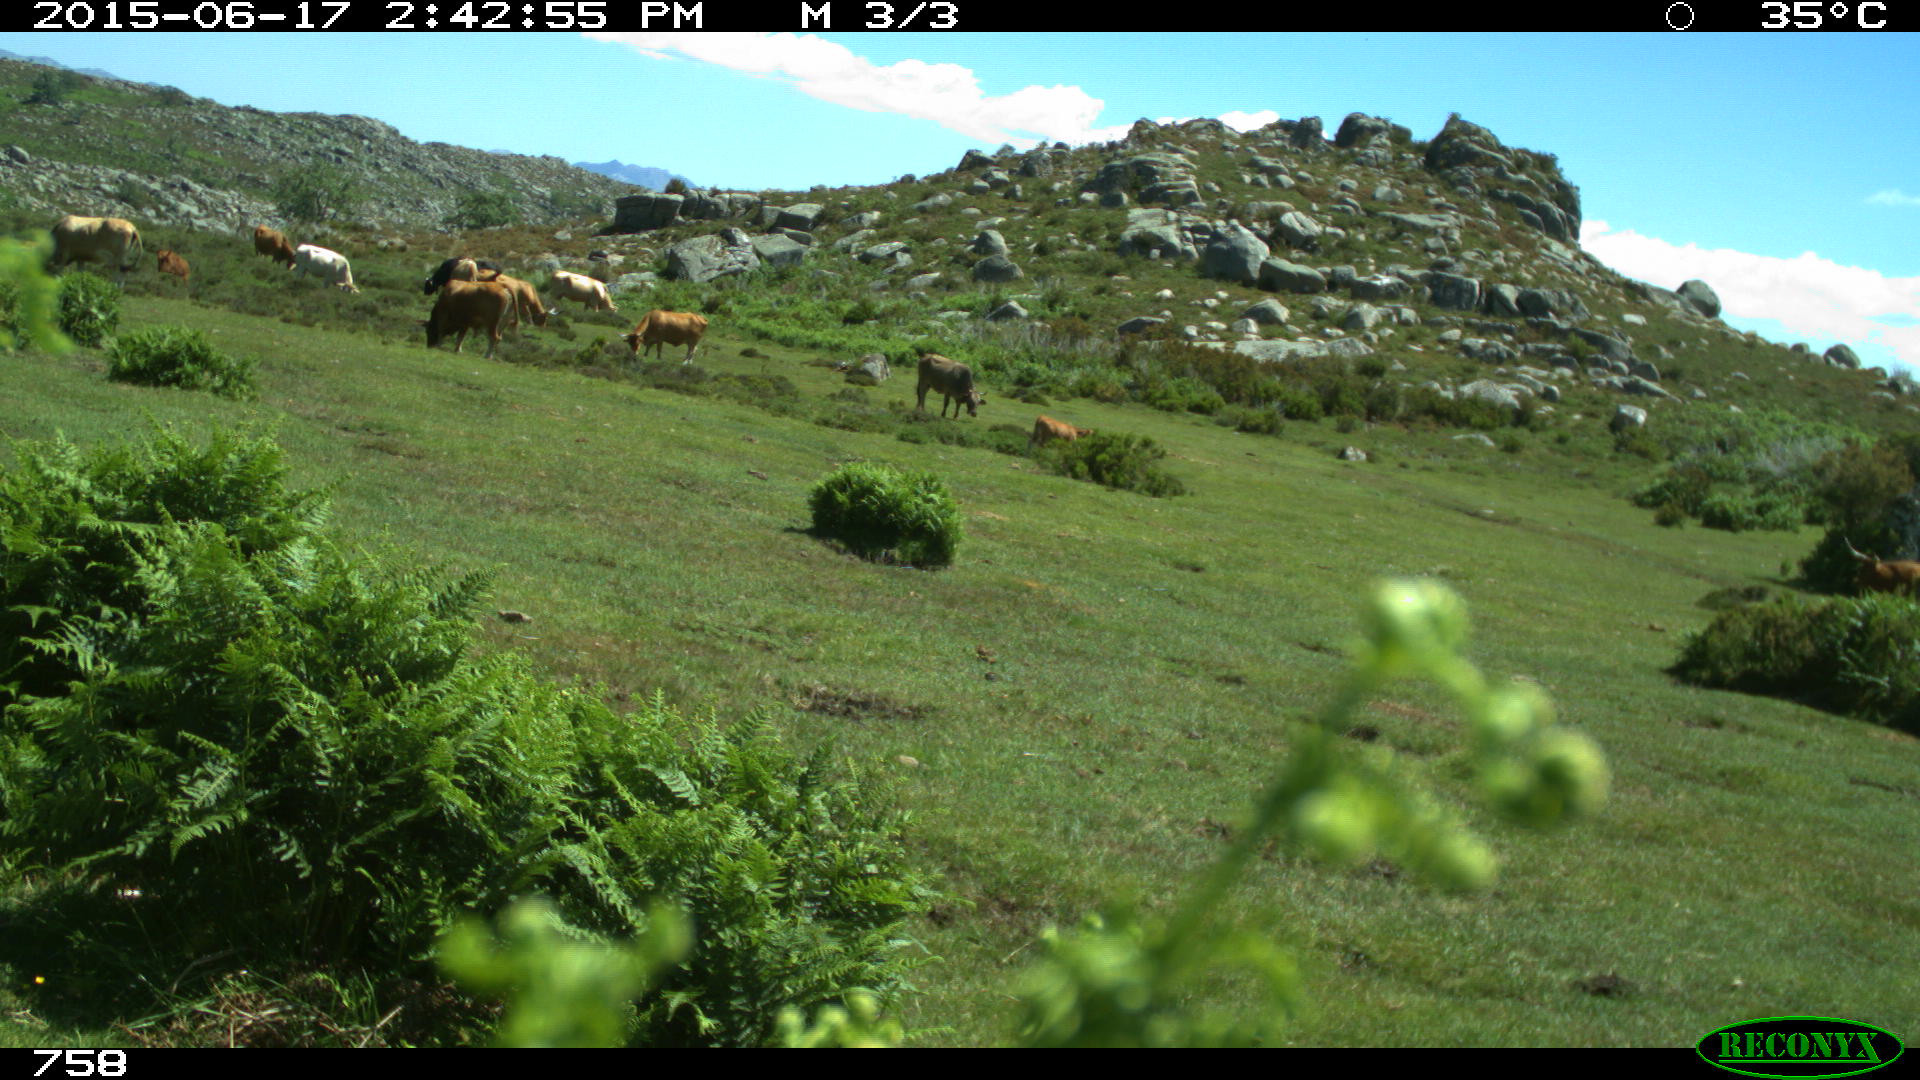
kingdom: Animalia
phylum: Chordata
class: Mammalia
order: Artiodactyla
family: Bovidae
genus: Bos
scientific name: Bos taurus
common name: Domesticated cattle
